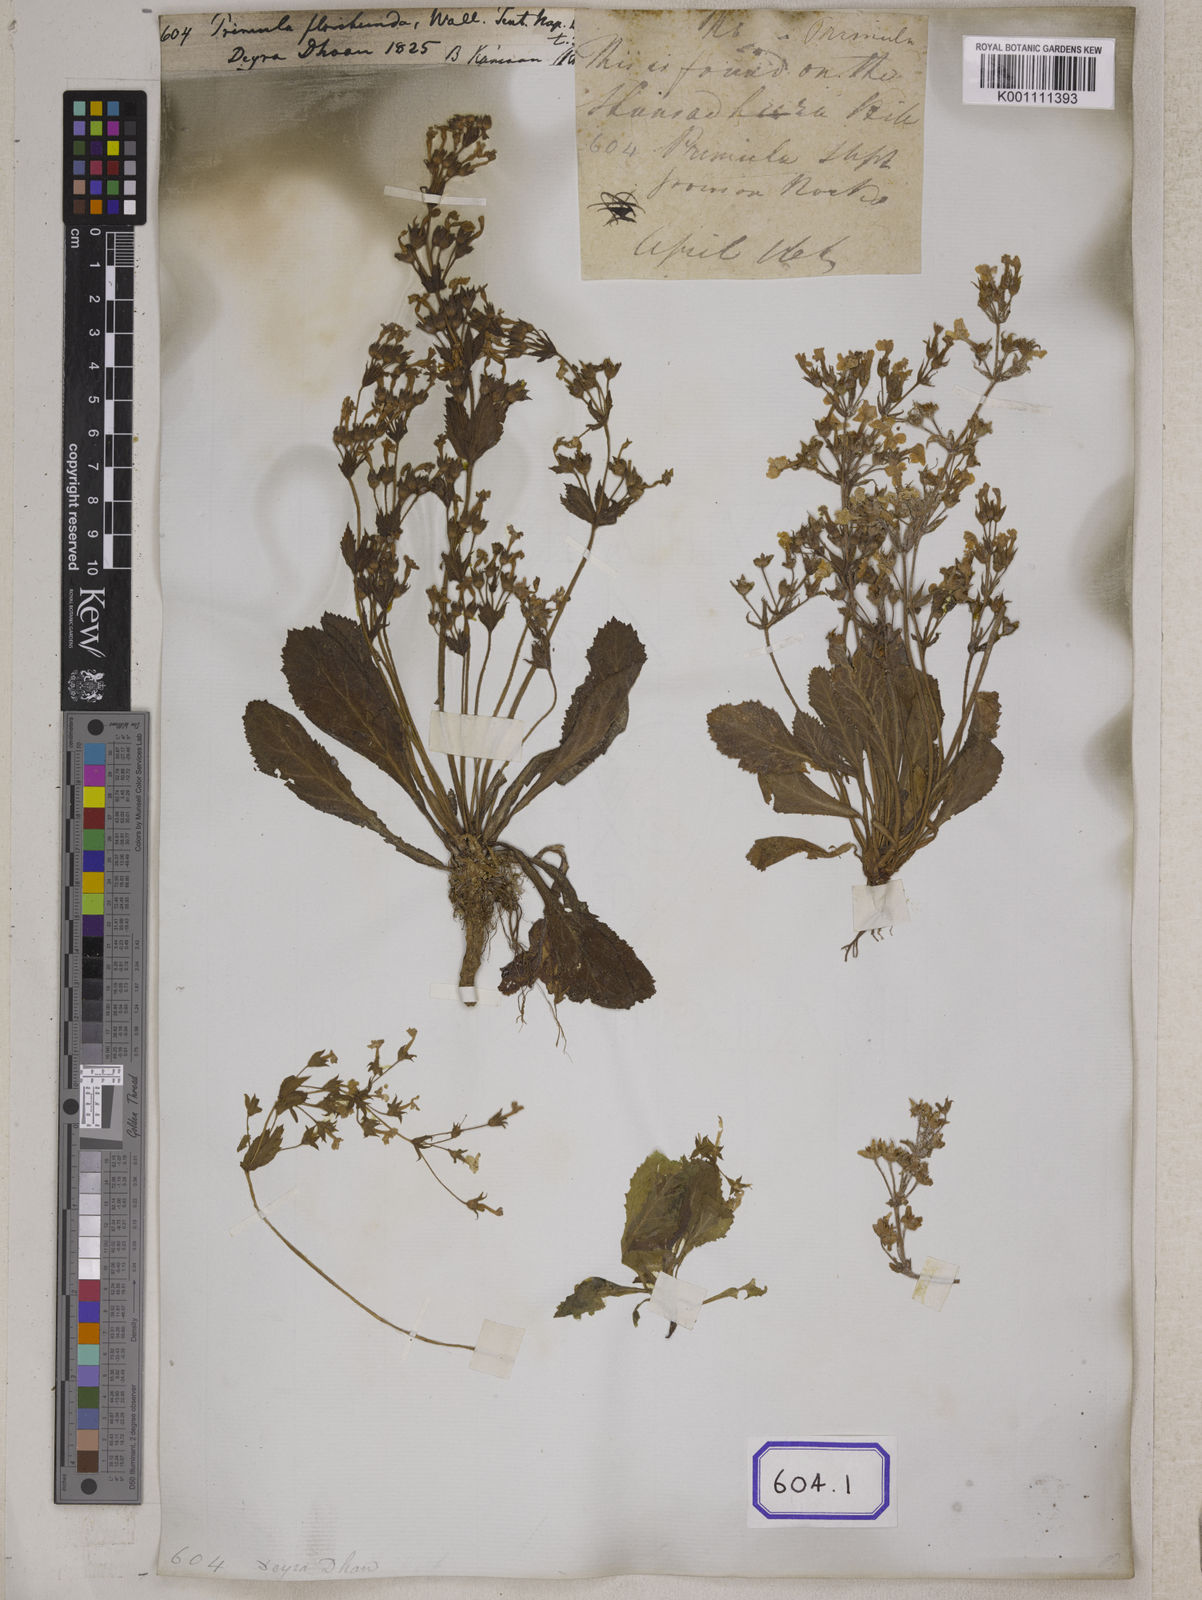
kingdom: Plantae
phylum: Tracheophyta
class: Magnoliopsida
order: Ericales
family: Primulaceae
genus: Evotrochis
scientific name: Evotrochis floribunda
